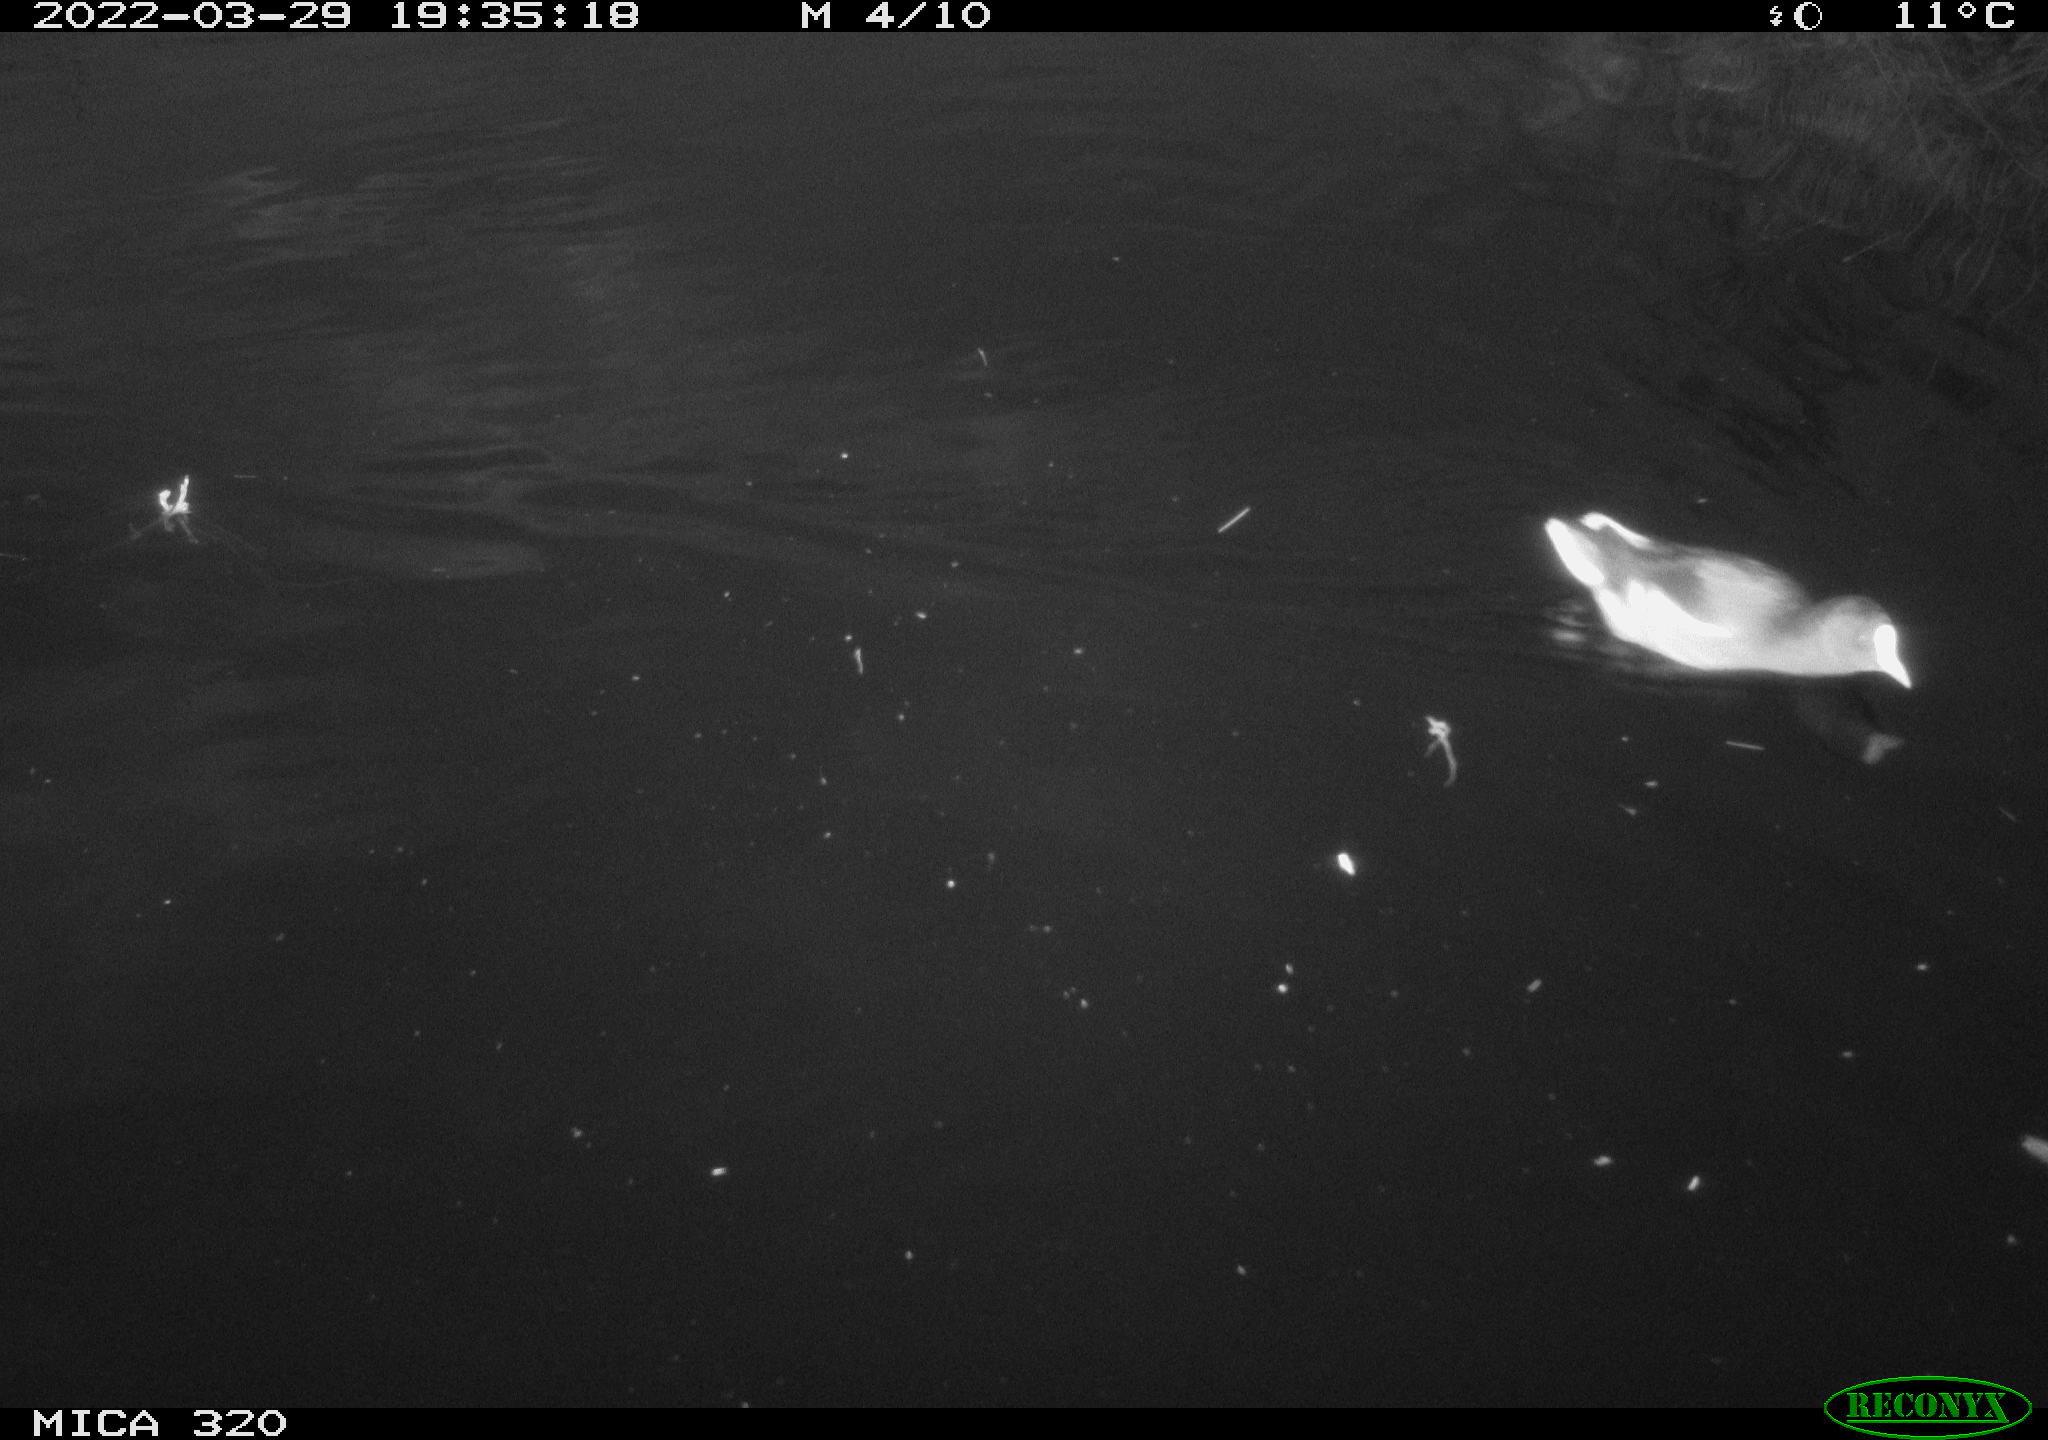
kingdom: Animalia
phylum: Chordata
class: Aves
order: Gruiformes
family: Rallidae
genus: Gallinula
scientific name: Gallinula chloropus
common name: Common moorhen
